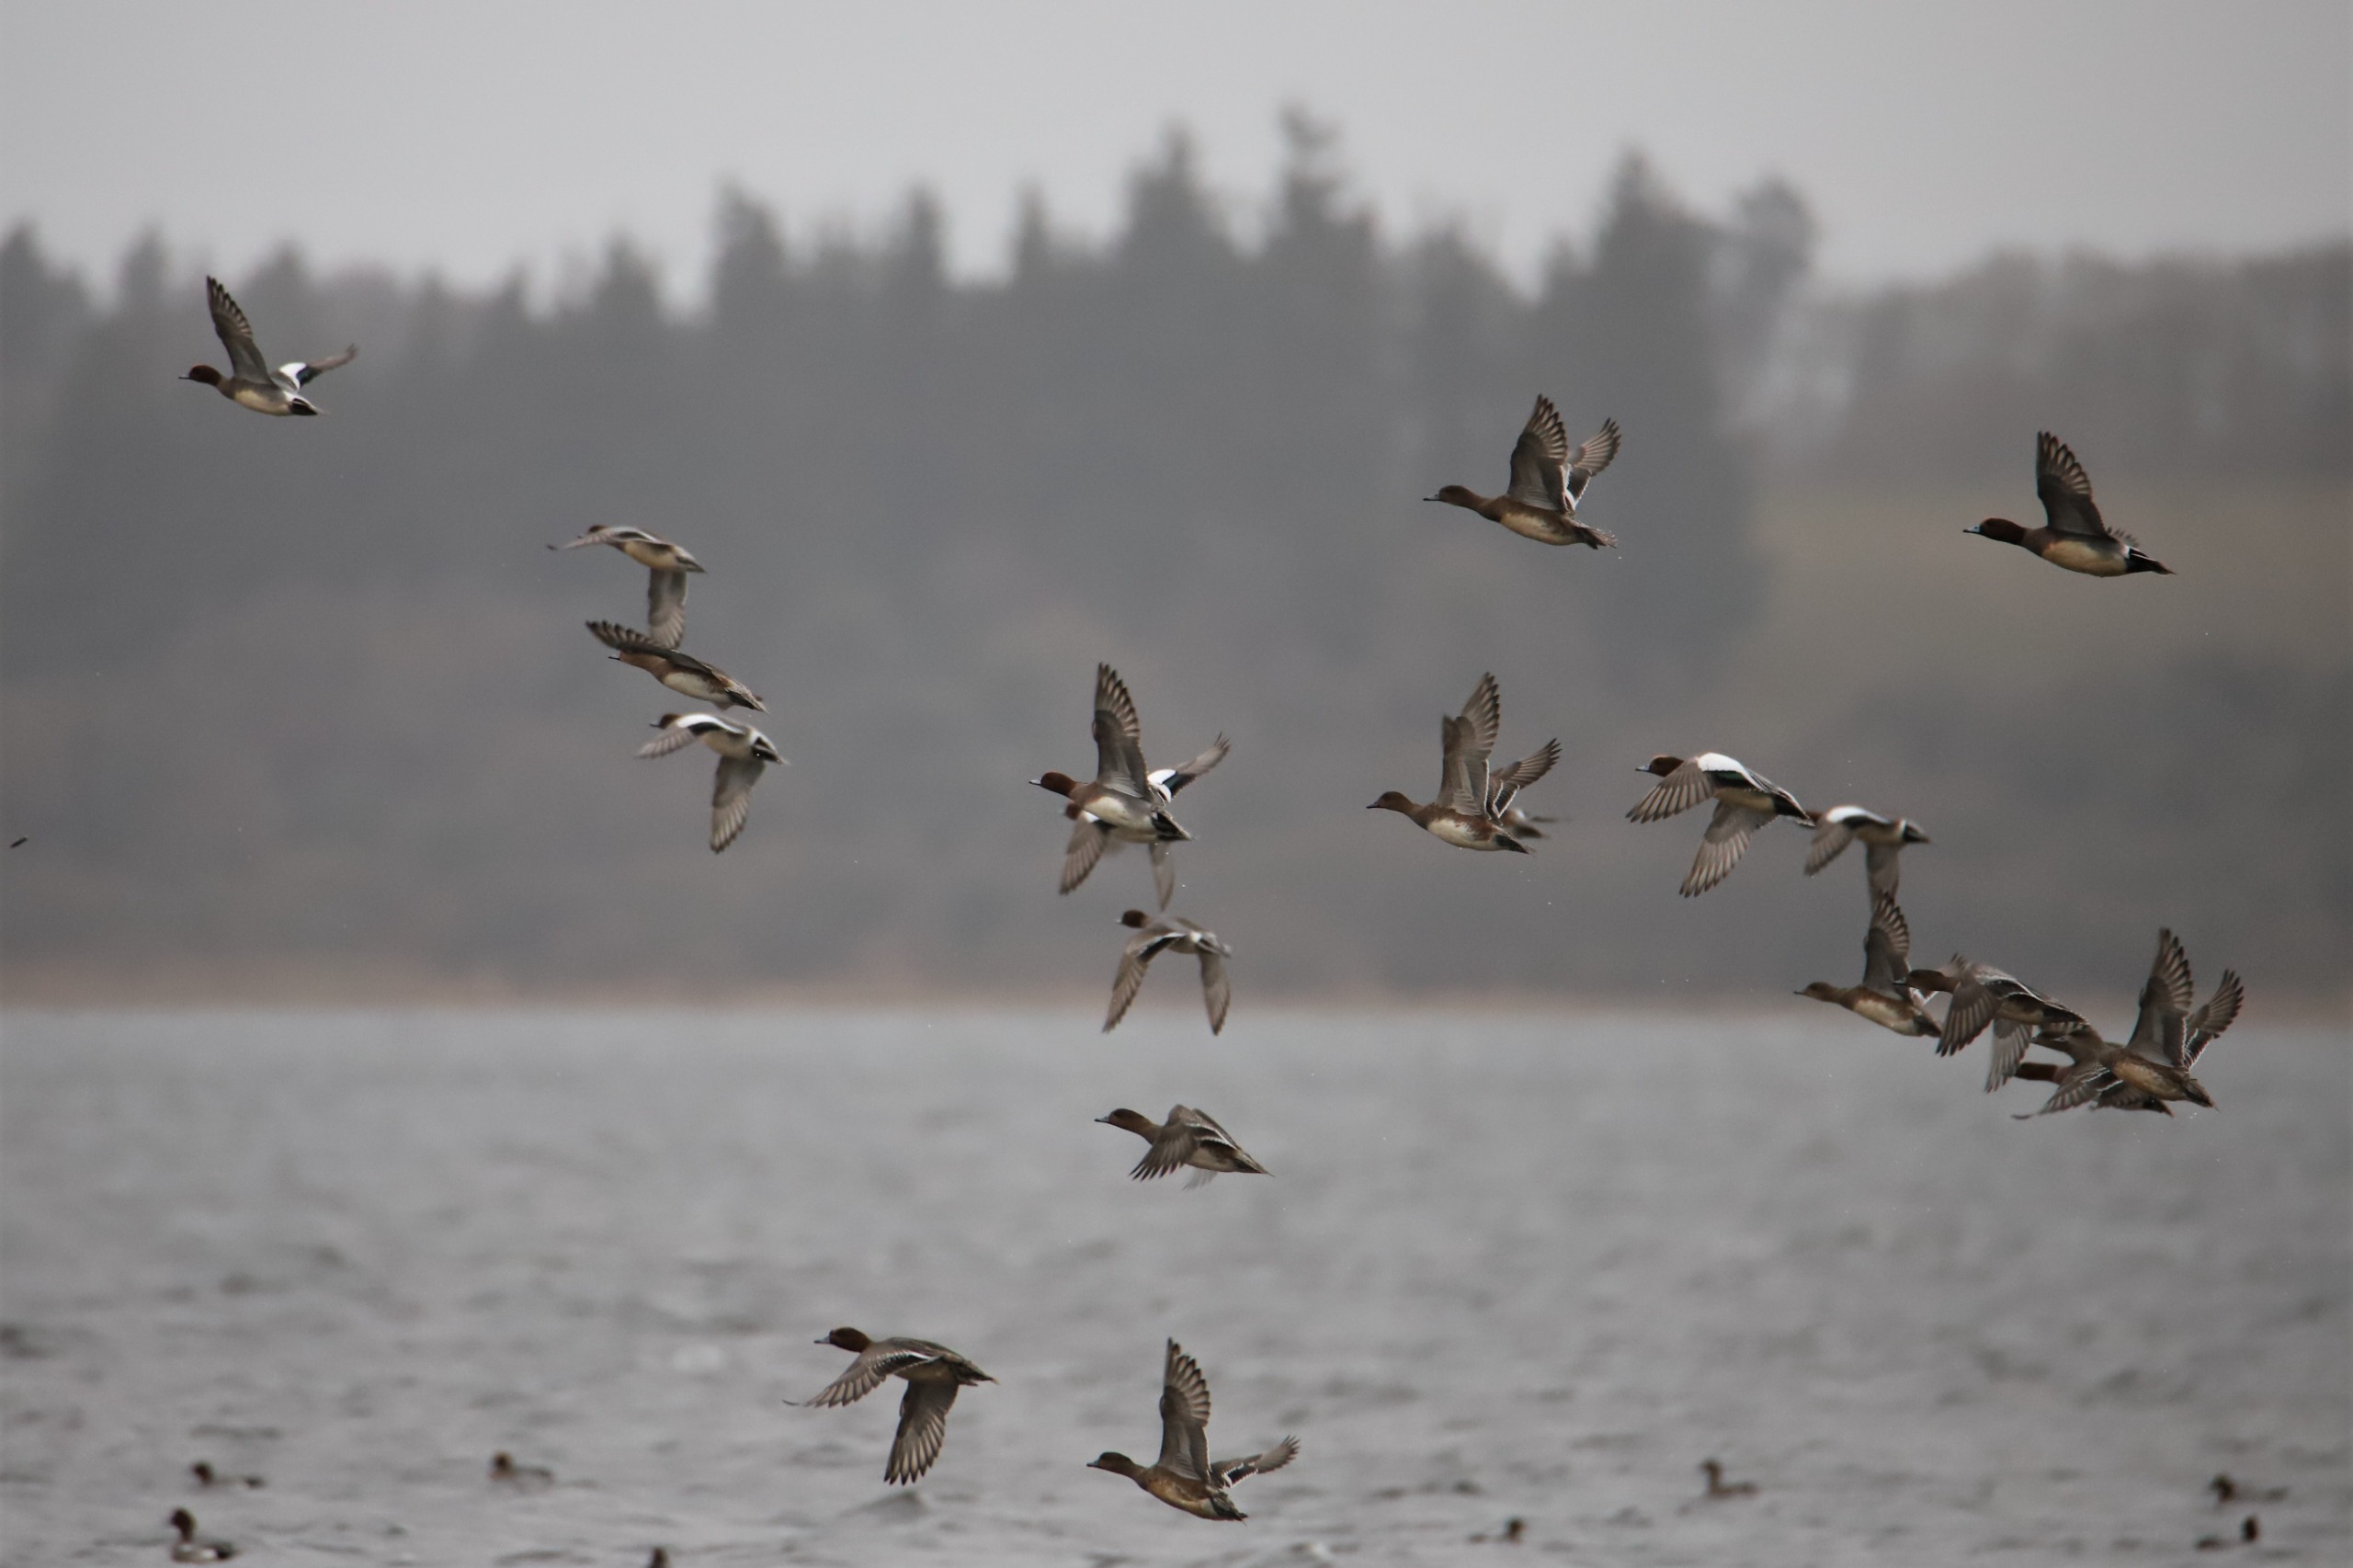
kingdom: Animalia
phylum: Chordata
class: Aves
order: Anseriformes
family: Anatidae
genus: Mareca
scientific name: Mareca penelope
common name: Pibeand
